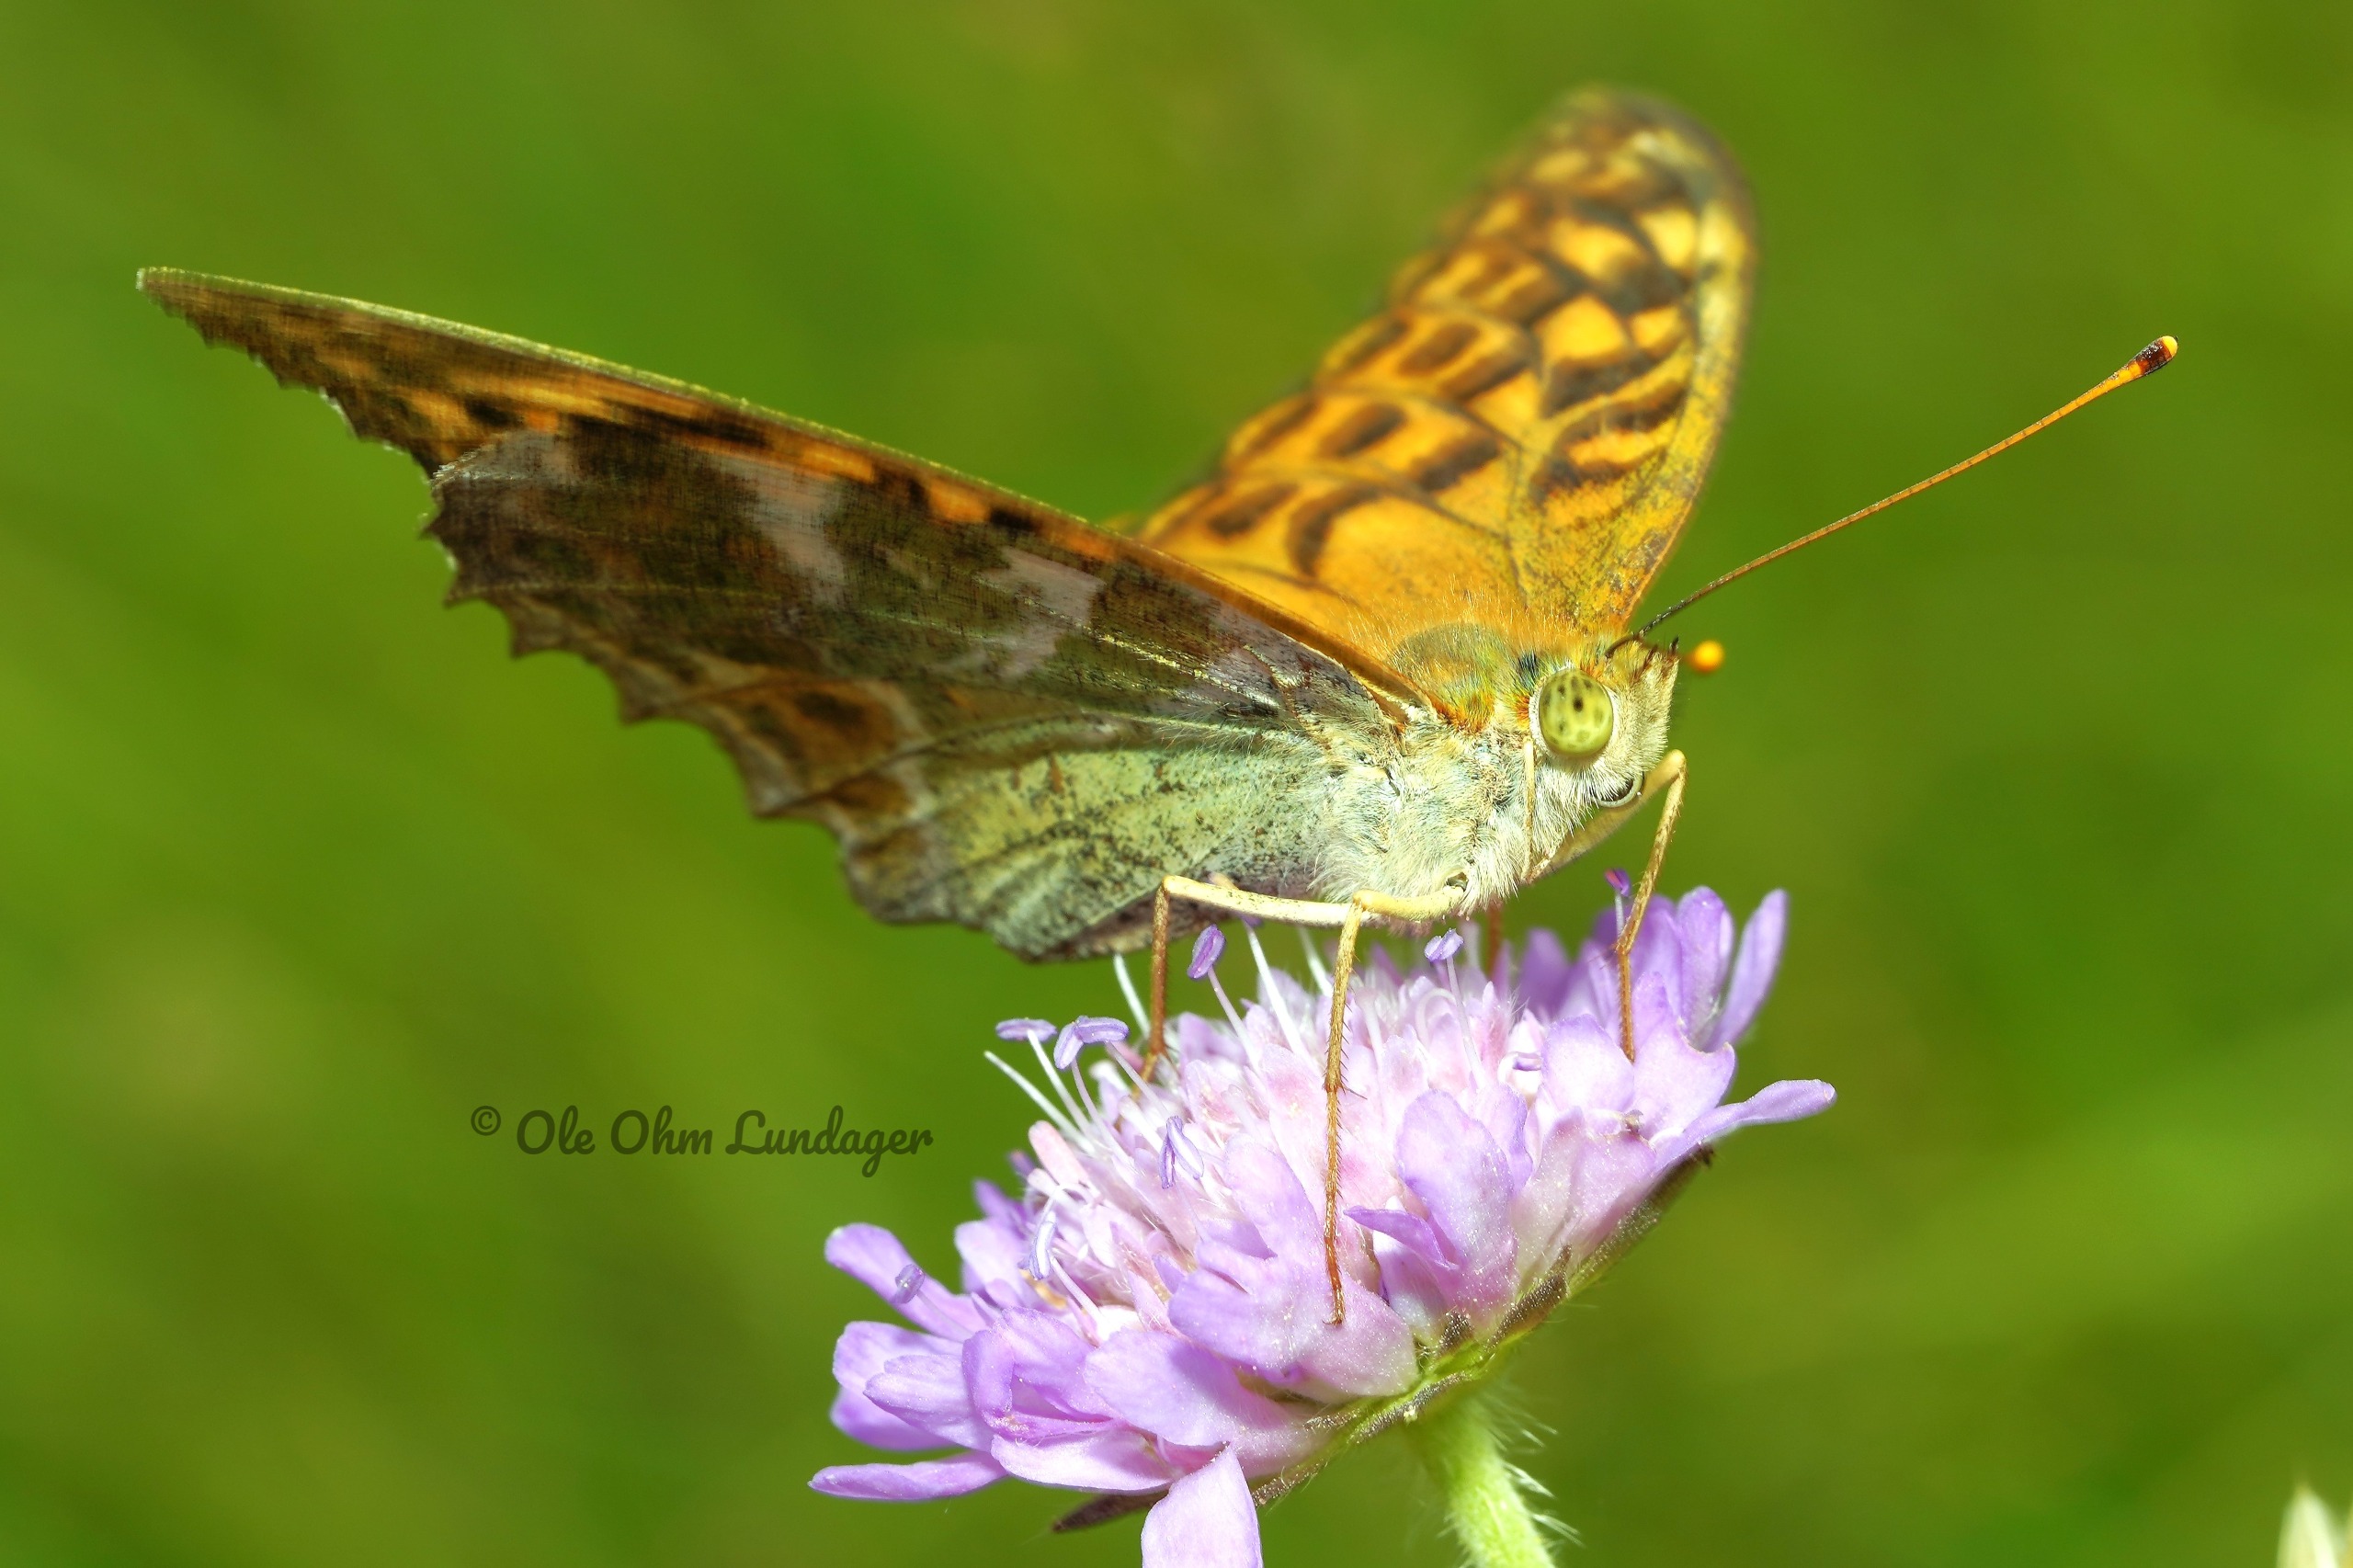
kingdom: Animalia
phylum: Arthropoda
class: Insecta
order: Lepidoptera
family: Nymphalidae
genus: Argynnis
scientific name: Argynnis paphia
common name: Kejserkåbe
